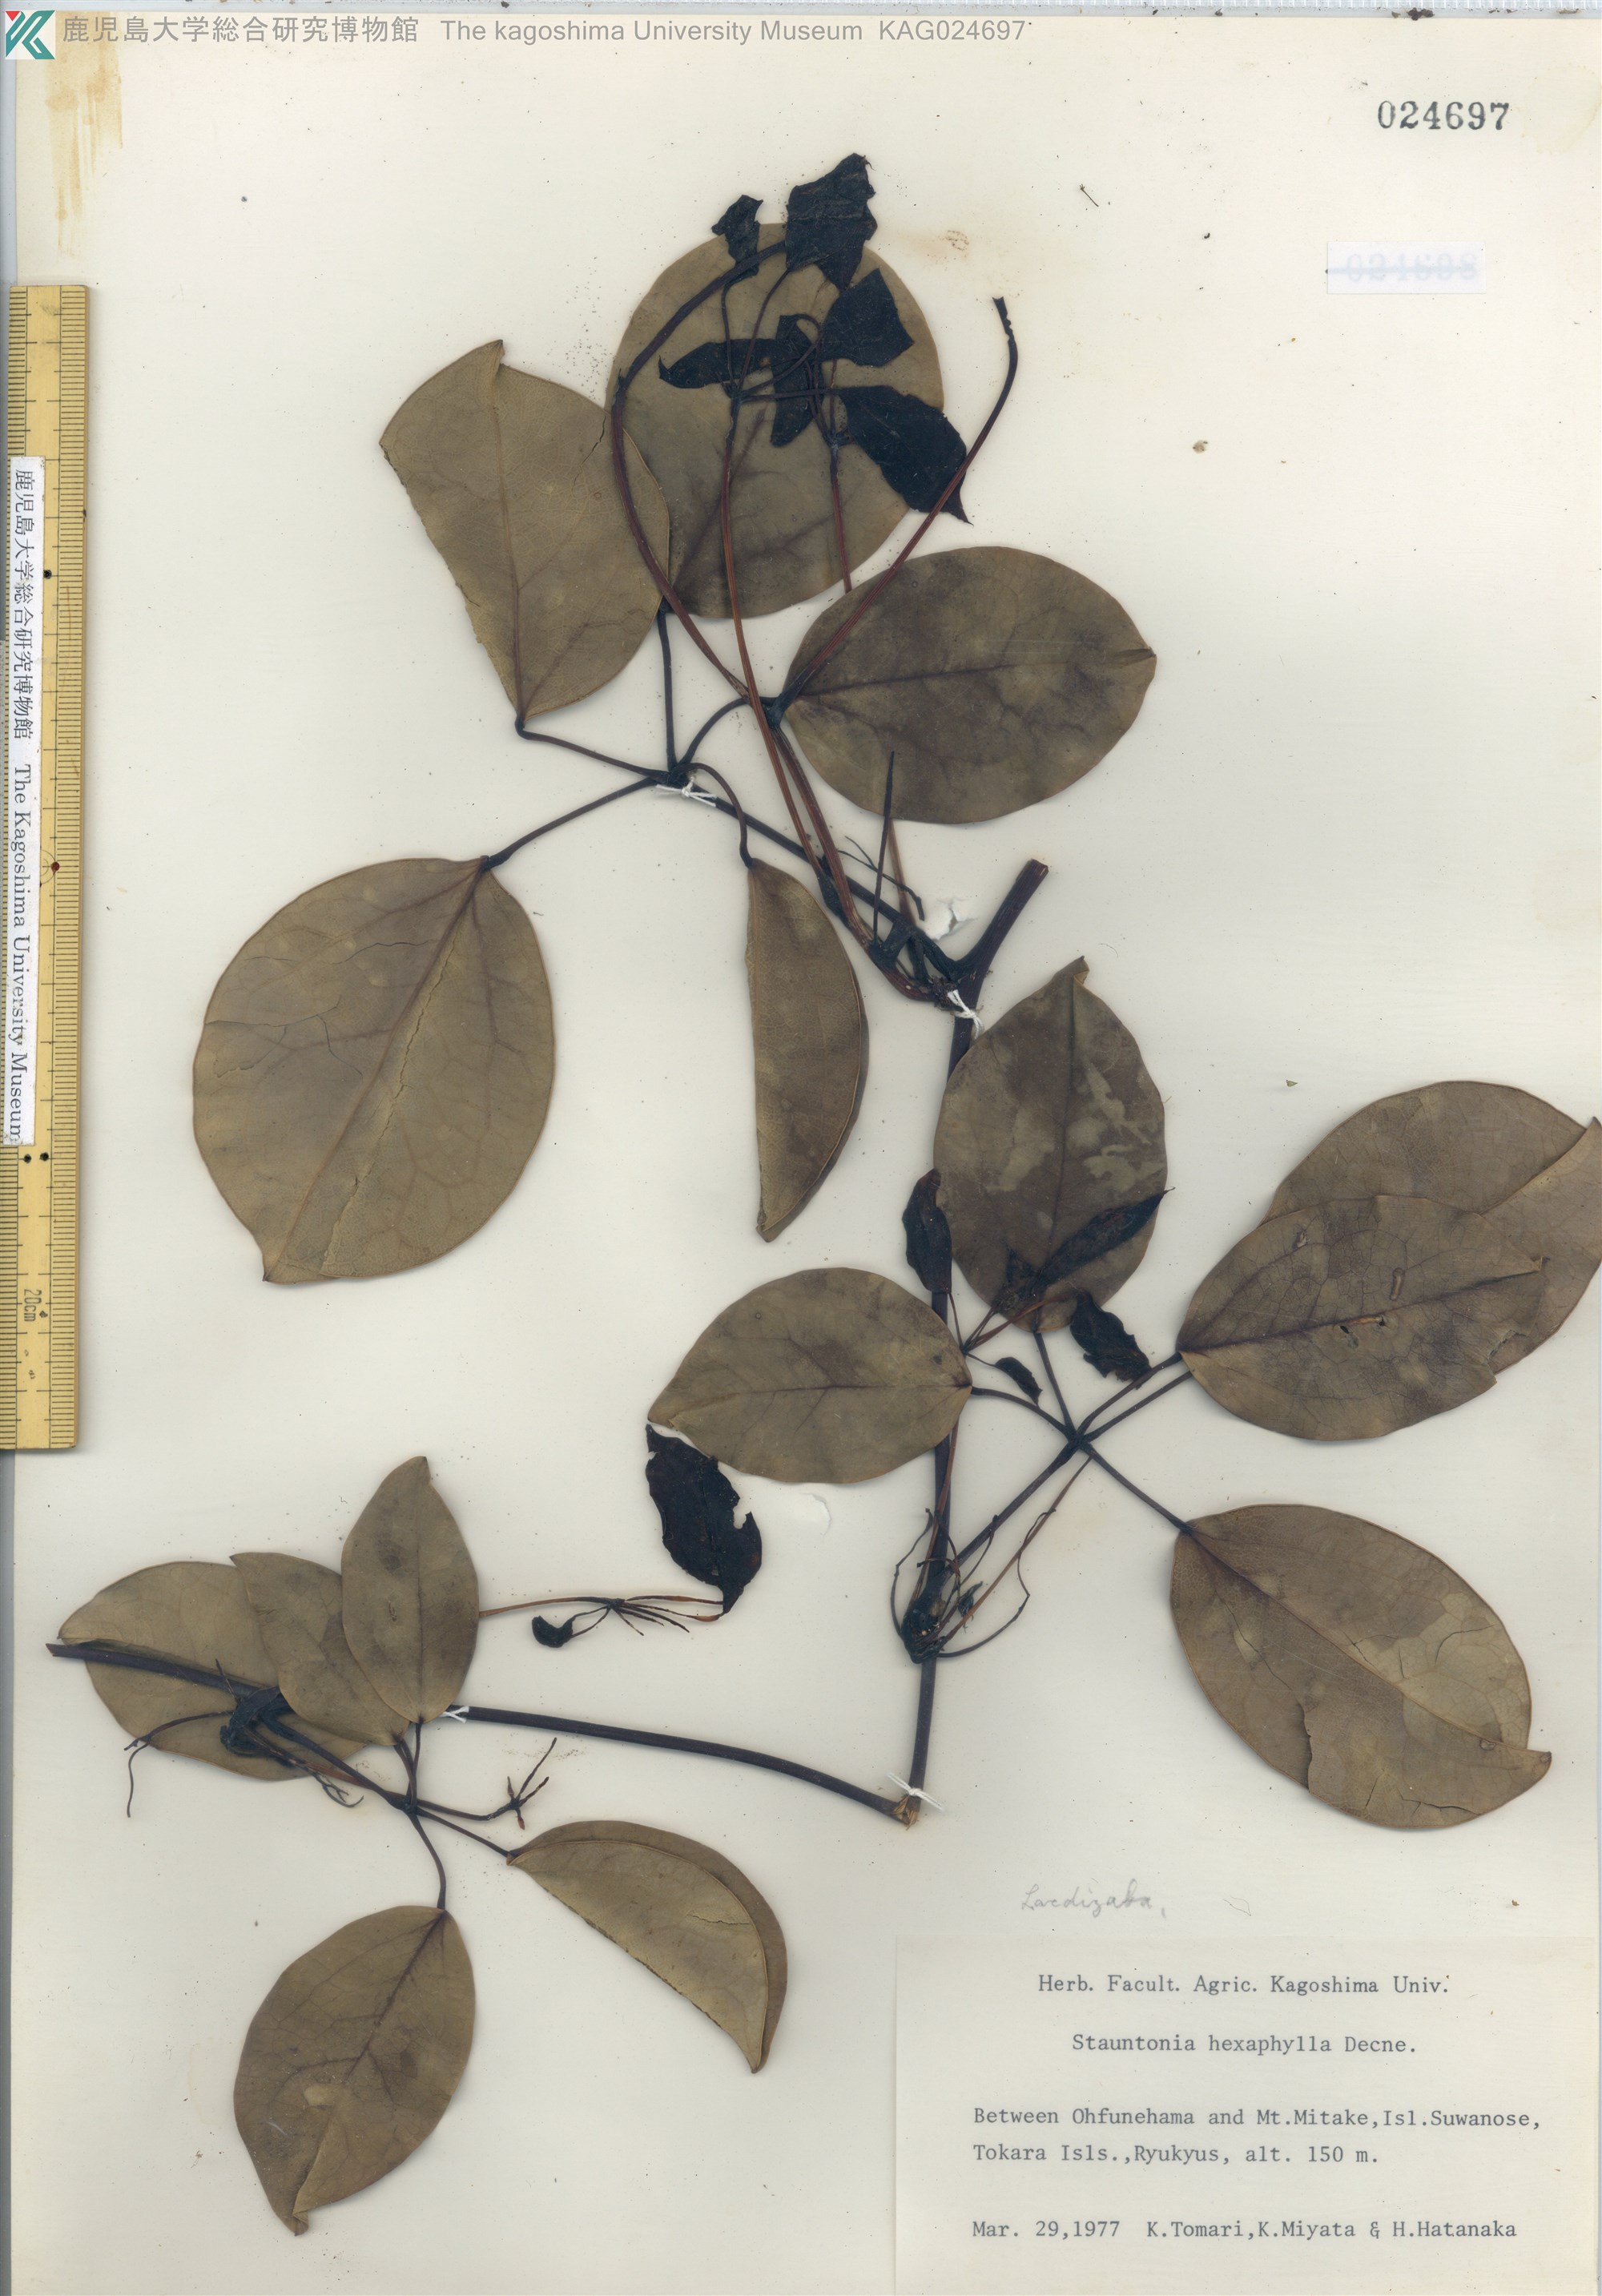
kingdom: Plantae
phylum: Tracheophyta
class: Magnoliopsida
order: Ranunculales
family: Lardizabalaceae
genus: Stauntonia
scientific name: Stauntonia hexaphylla
